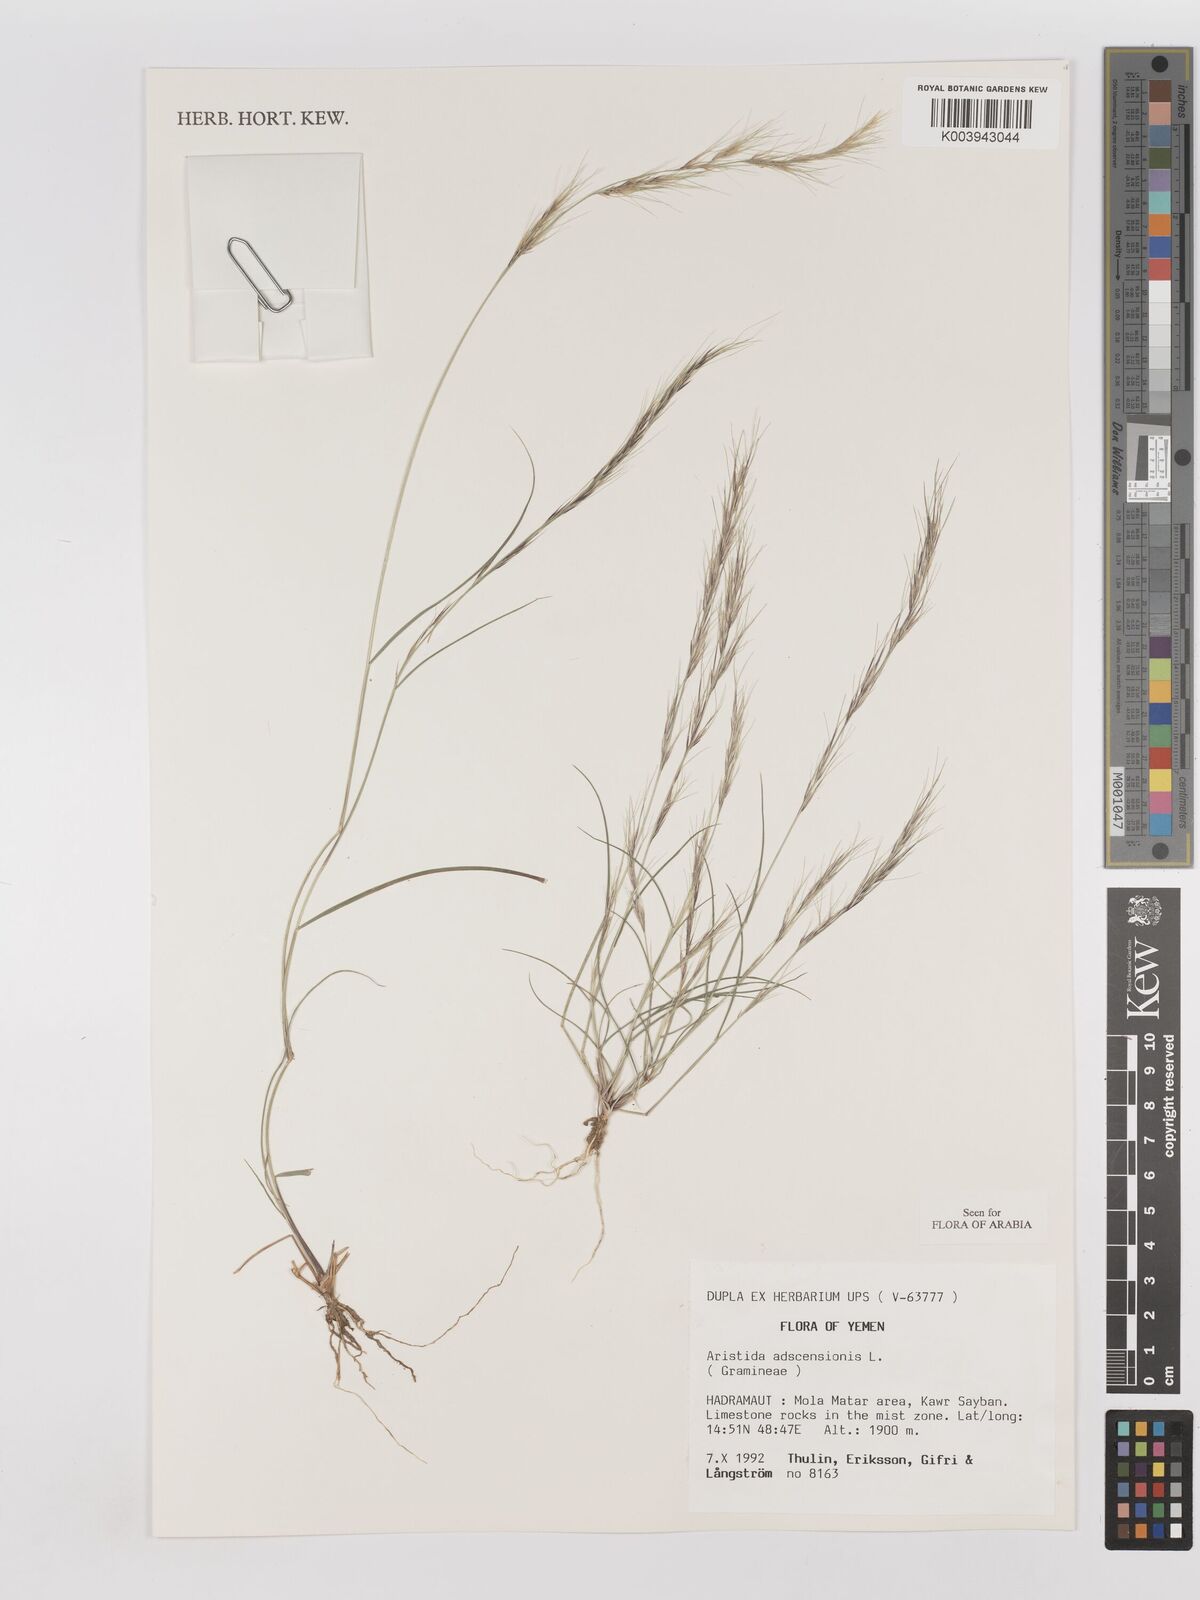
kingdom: Plantae
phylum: Tracheophyta
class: Liliopsida
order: Poales
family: Poaceae
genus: Aristida
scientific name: Aristida adscensionis
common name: Sixweeks threeawn
